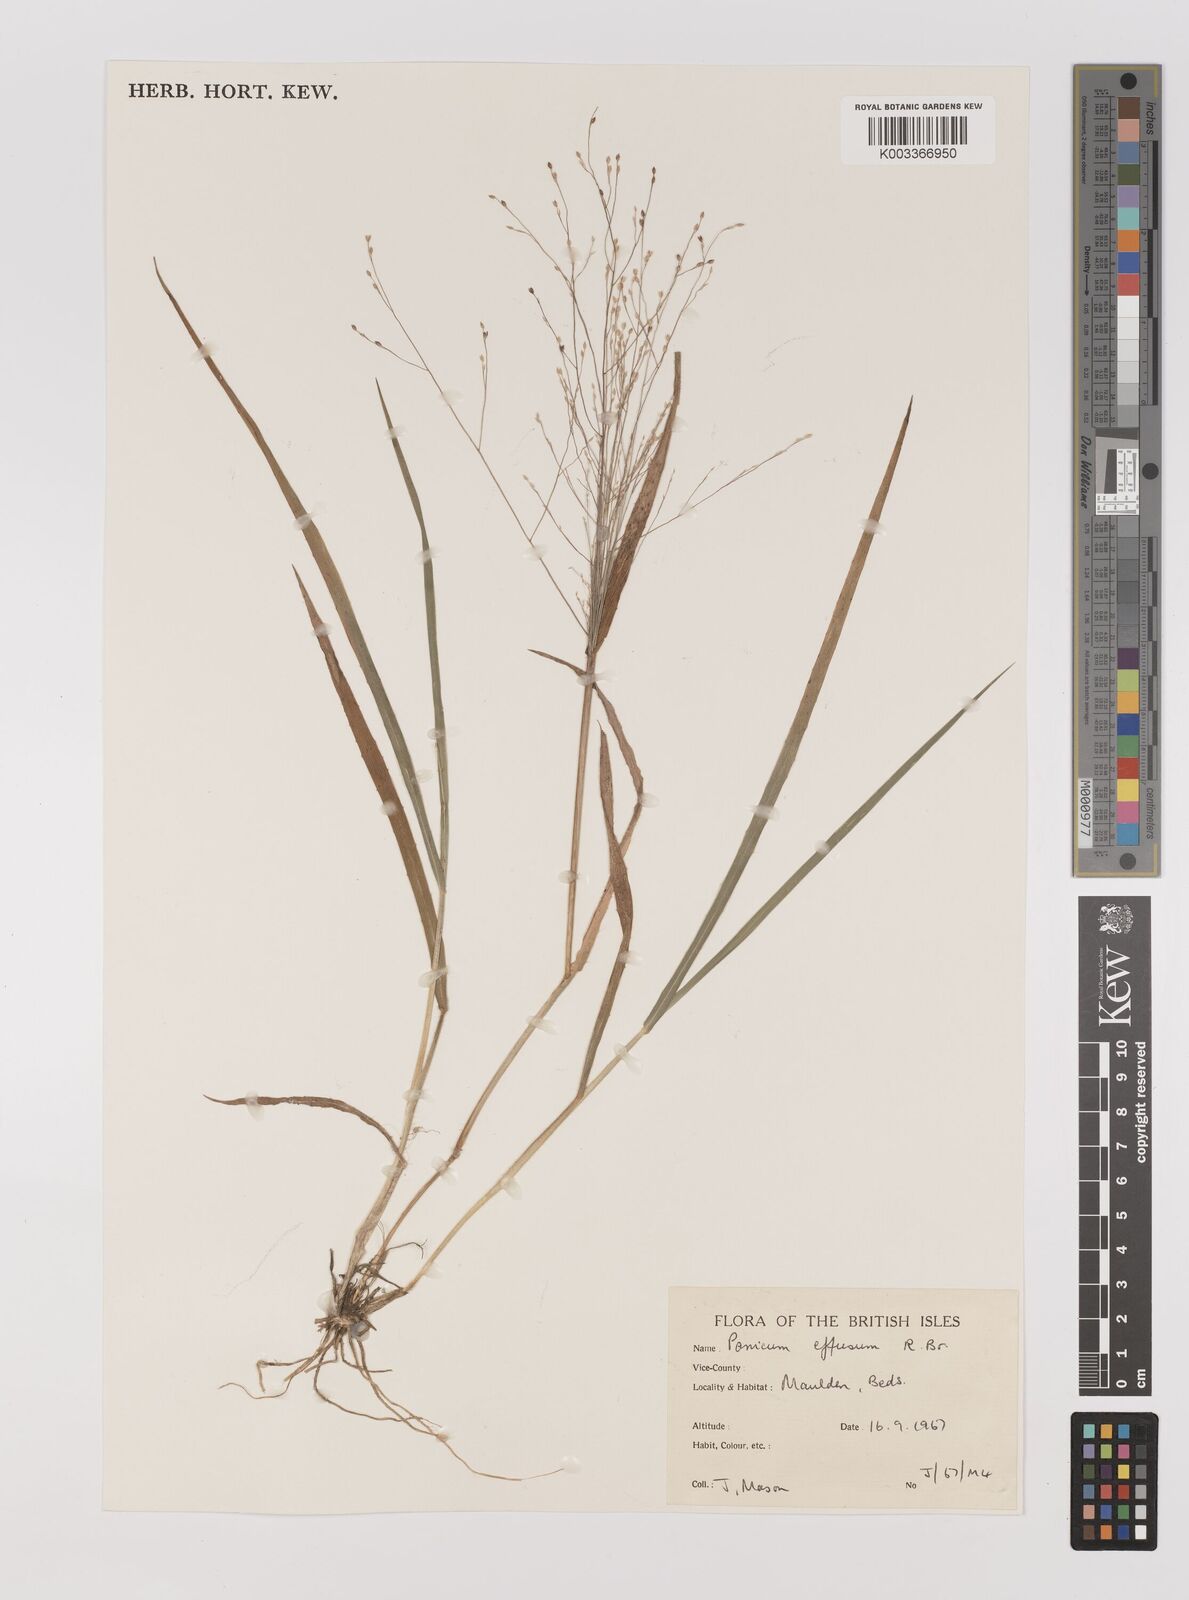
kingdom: Plantae
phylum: Tracheophyta
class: Liliopsida
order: Poales
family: Poaceae
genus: Panicum
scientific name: Panicum effusum
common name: Hairy panic grass
